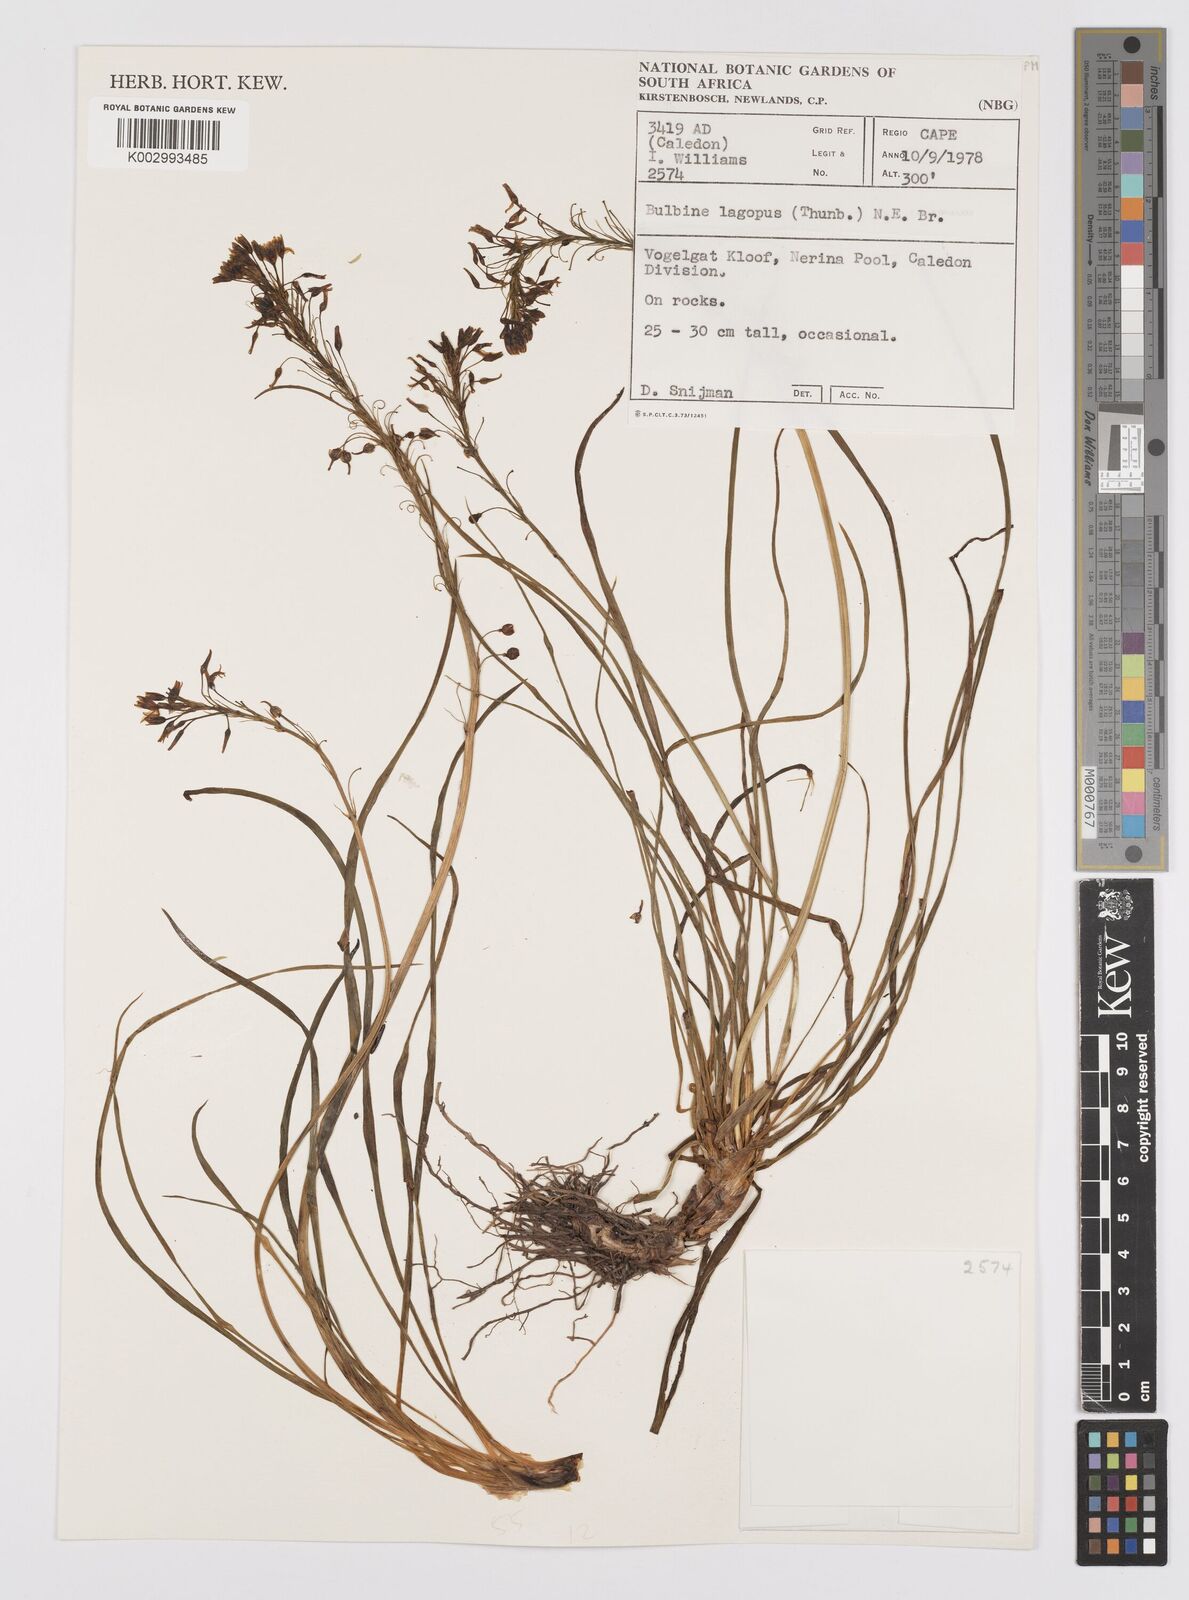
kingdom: Plantae
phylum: Tracheophyta
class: Liliopsida
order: Asparagales
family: Asphodelaceae
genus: Bulbine
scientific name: Bulbine lagopus
